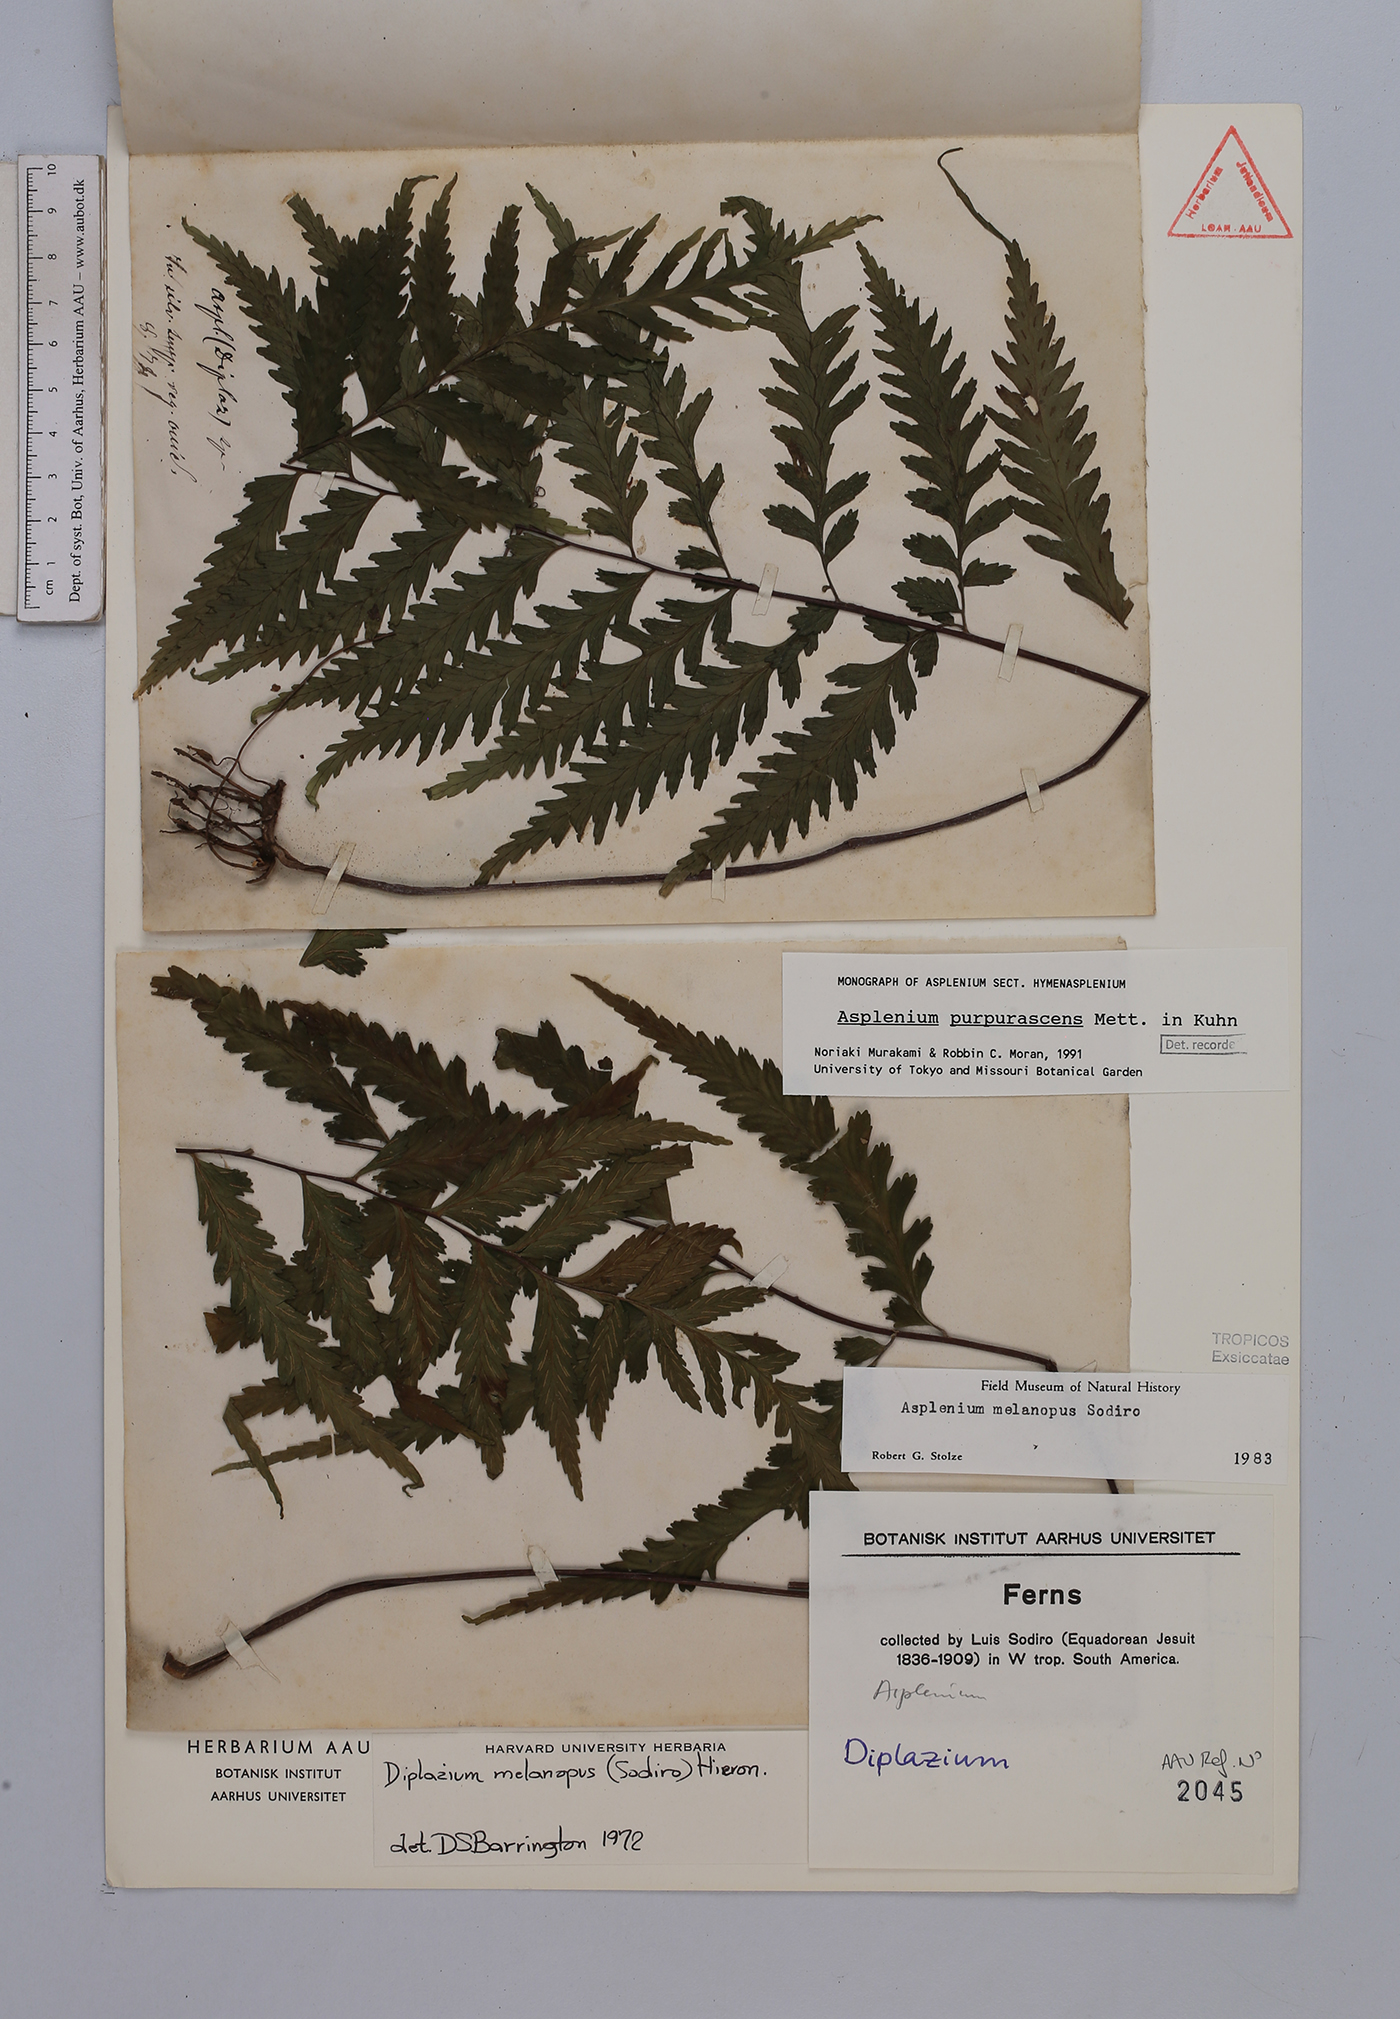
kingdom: Plantae
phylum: Tracheophyta
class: Polypodiopsida
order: Polypodiales
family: Aspleniaceae
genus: Hymenasplenium
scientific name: Hymenasplenium purpurascens
